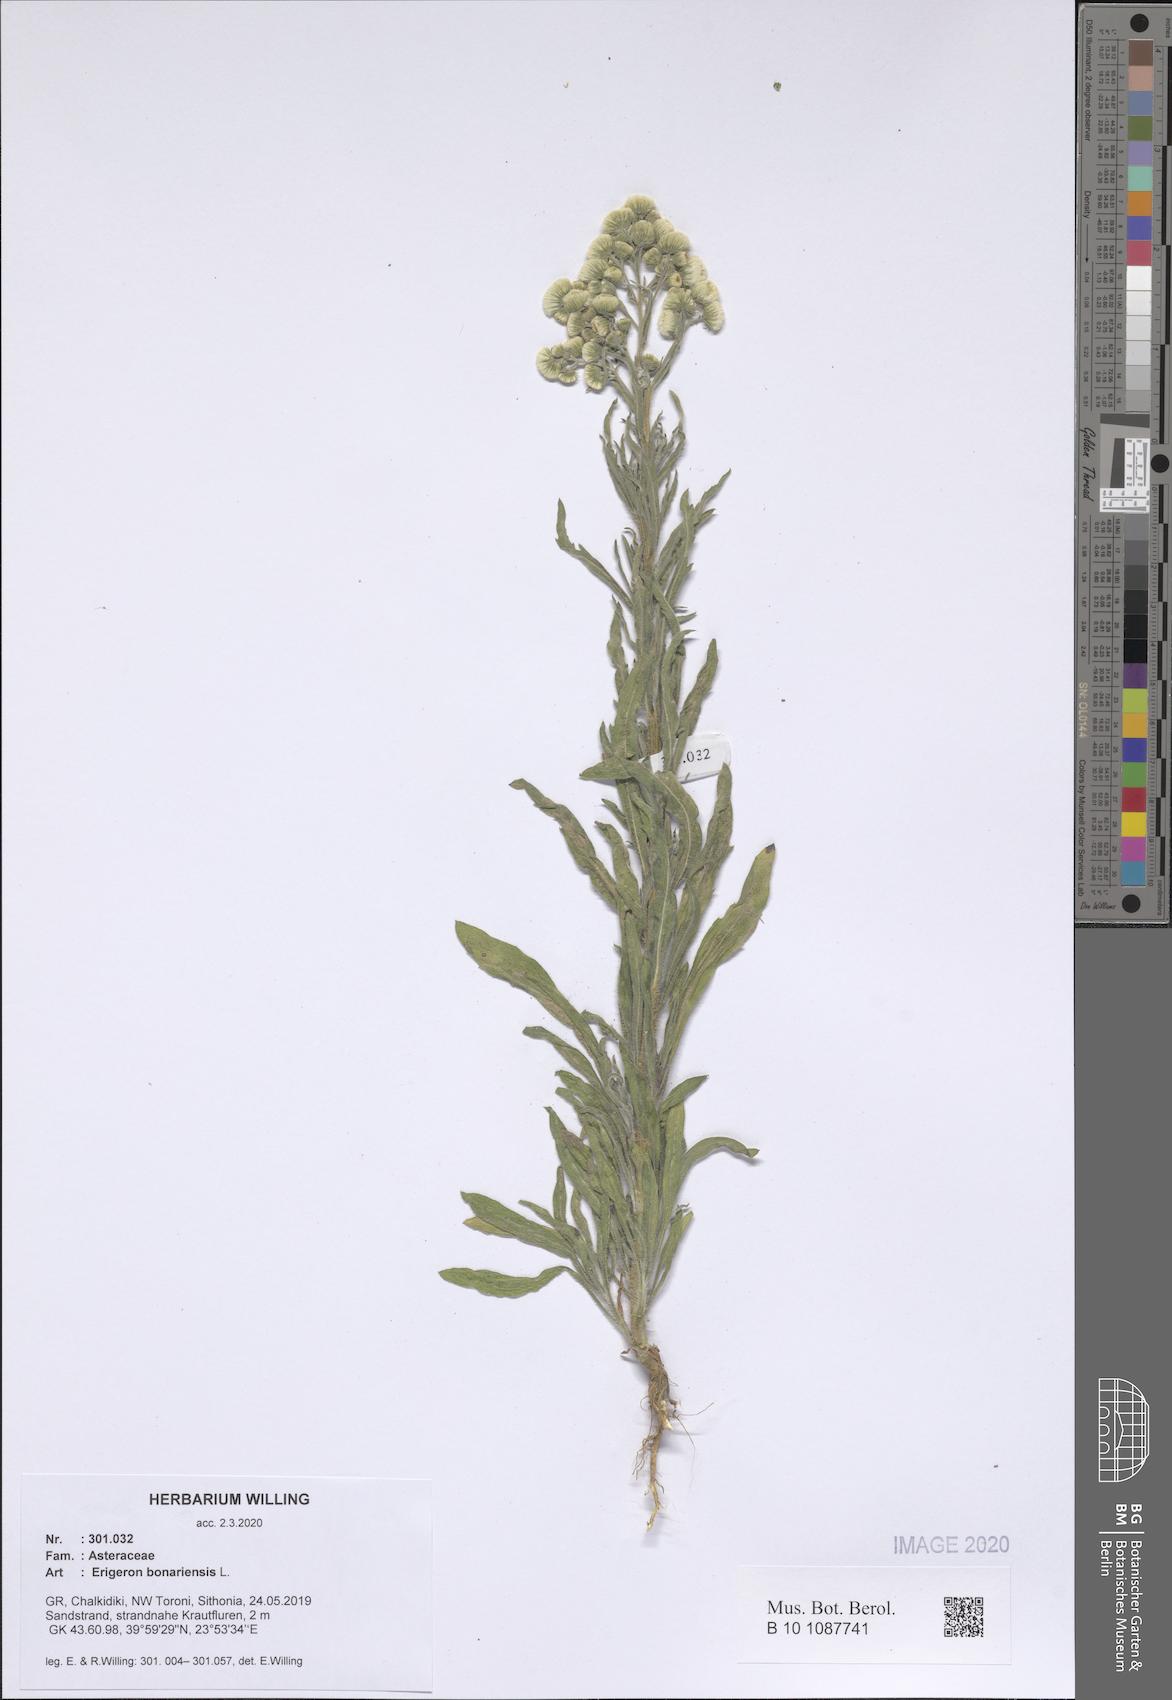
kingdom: Plantae
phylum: Tracheophyta
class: Magnoliopsida
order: Asterales
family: Asteraceae
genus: Erigeron
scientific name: Erigeron bonariensis
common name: Argentine fleabane
